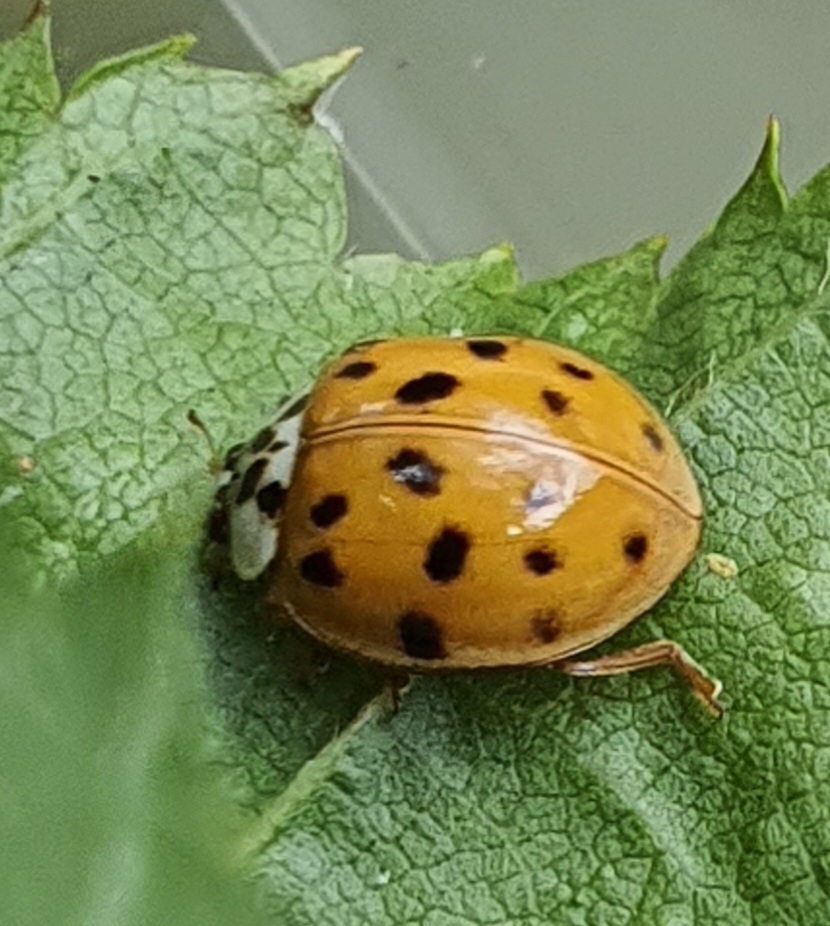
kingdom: Animalia
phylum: Arthropoda
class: Insecta
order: Coleoptera
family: Coccinellidae
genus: Harmonia
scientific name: Harmonia axyridis
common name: Harlekinmariehøne
